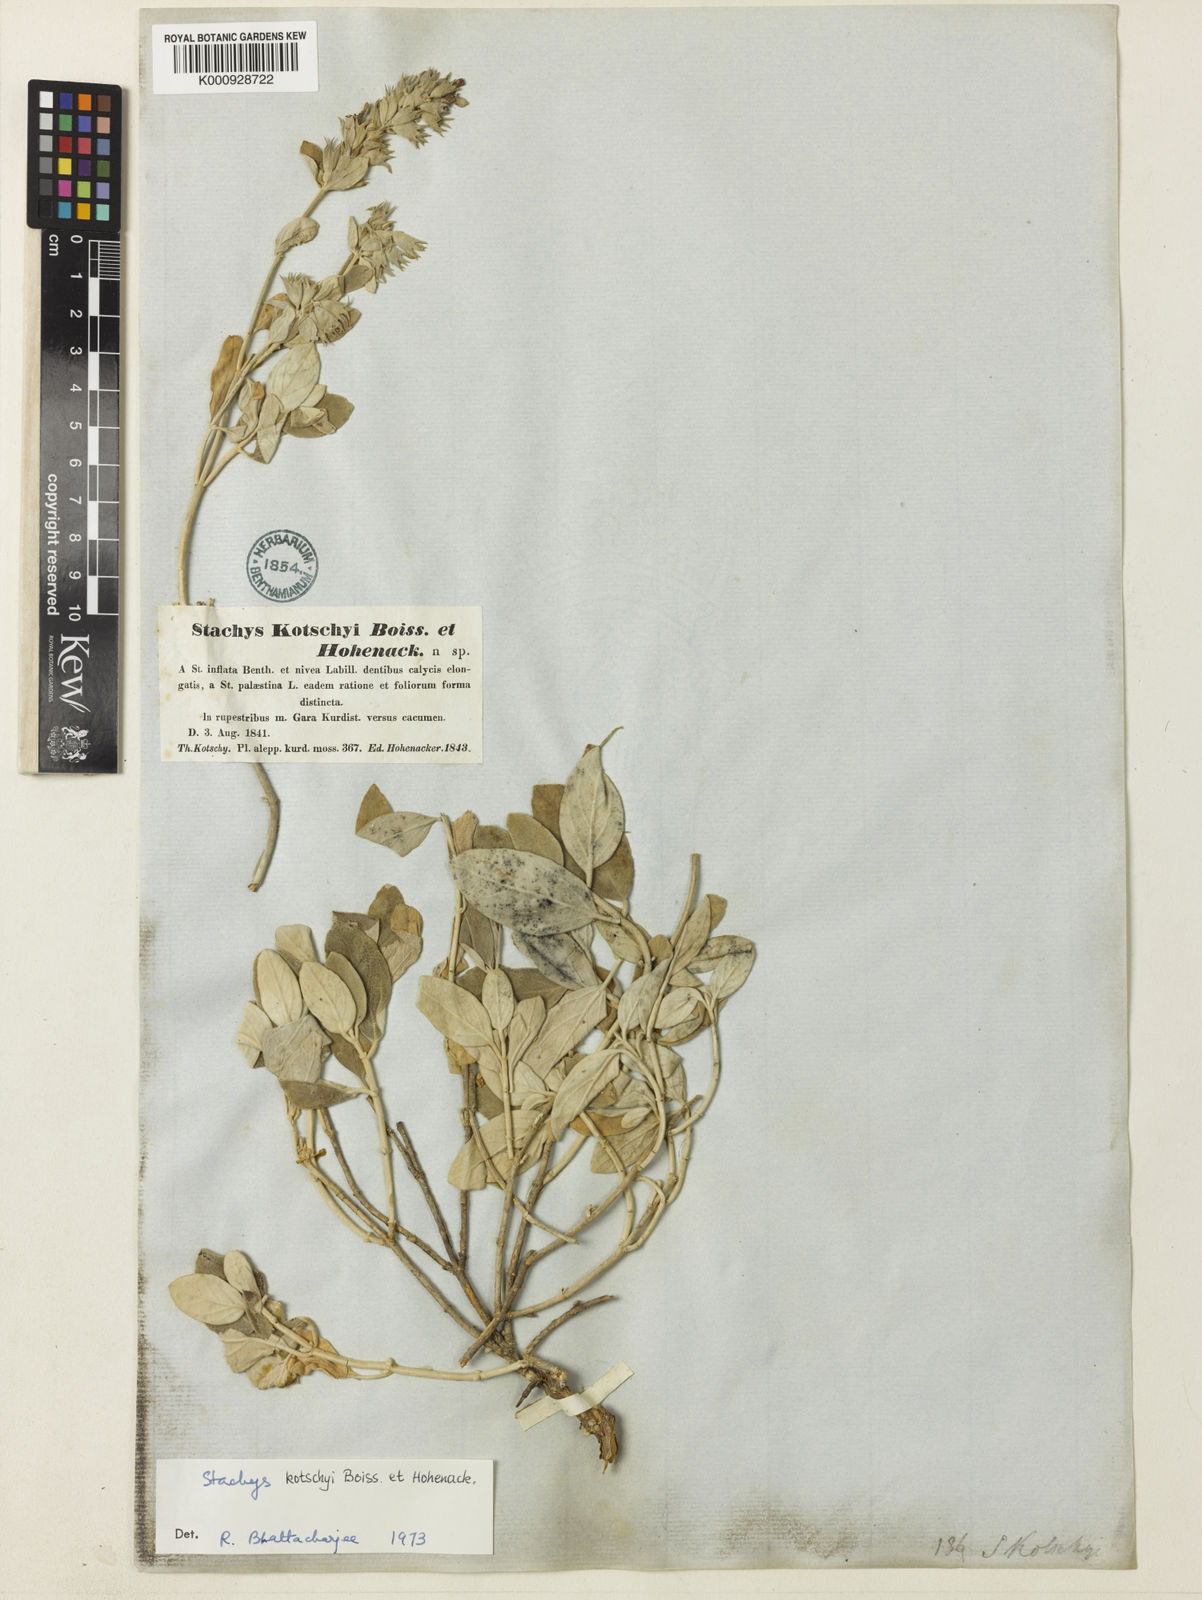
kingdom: Plantae
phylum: Tracheophyta
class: Magnoliopsida
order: Lamiales
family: Lamiaceae
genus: Stachys
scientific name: Stachys kotschyi
